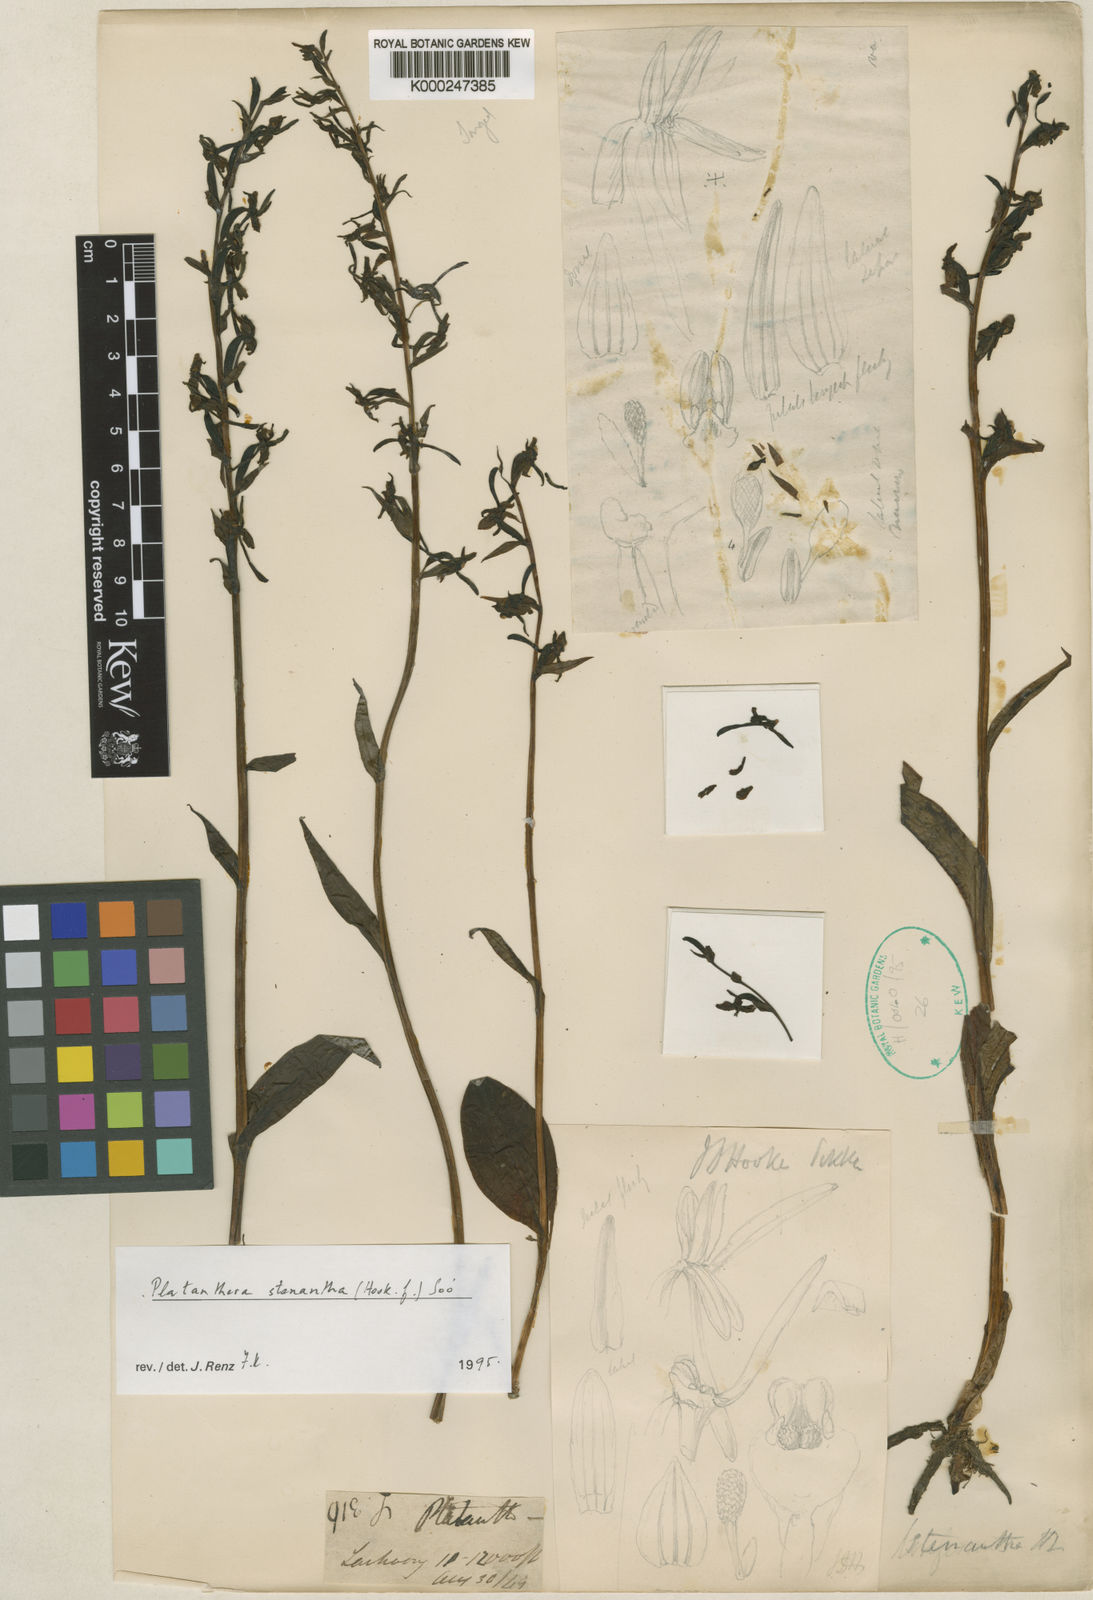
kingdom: Plantae
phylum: Tracheophyta
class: Liliopsida
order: Asparagales
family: Orchidaceae
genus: Platanthera
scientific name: Platanthera
